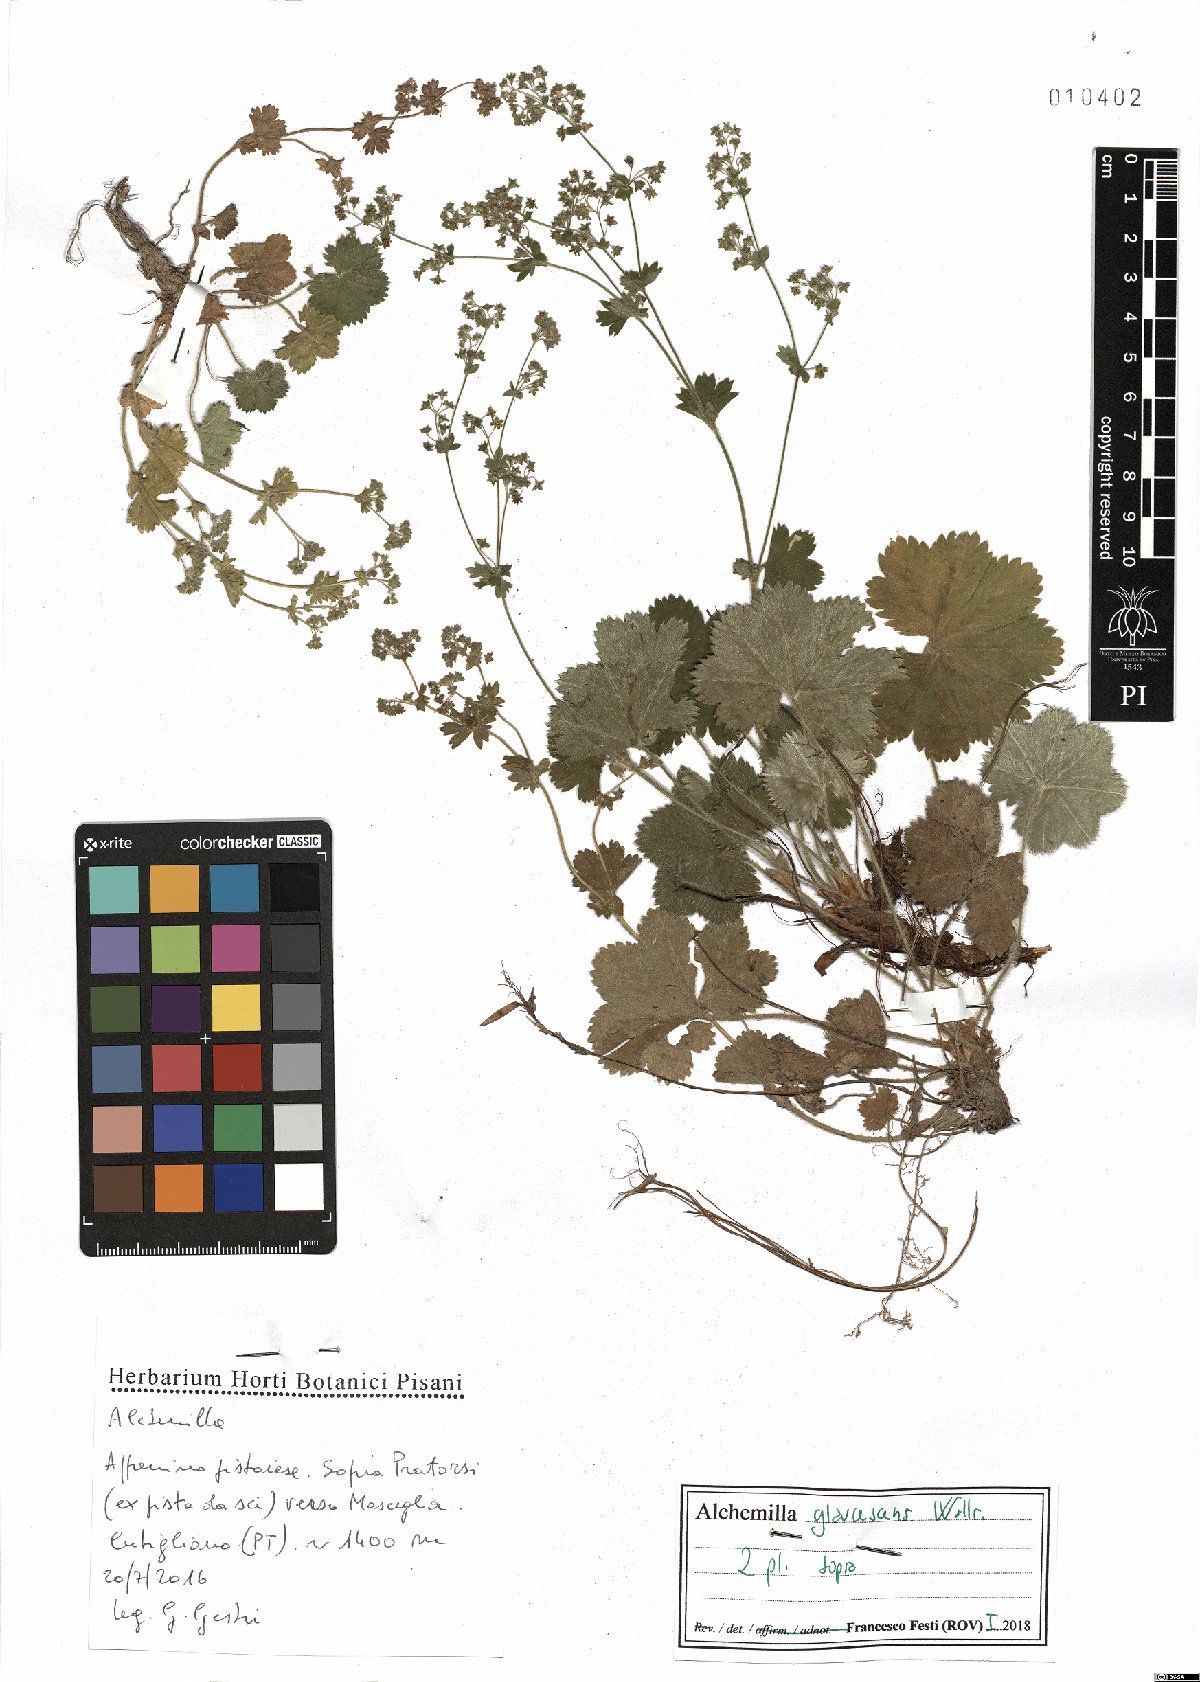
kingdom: Plantae
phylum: Tracheophyta
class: Magnoliopsida
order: Rosales
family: Rosaceae
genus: Alchemilla
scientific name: Alchemilla glaucescens
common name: Silky lady's mantle
